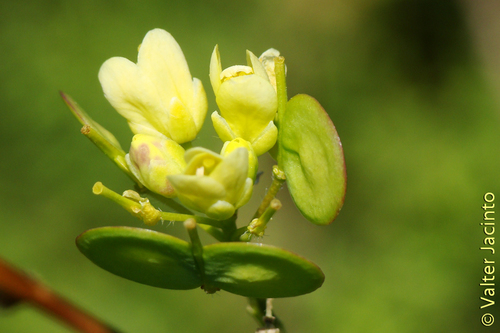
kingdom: Plantae
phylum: Tracheophyta
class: Magnoliopsida
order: Brassicales
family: Brassicaceae
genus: Biscutella
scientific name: Biscutella sempervirens
